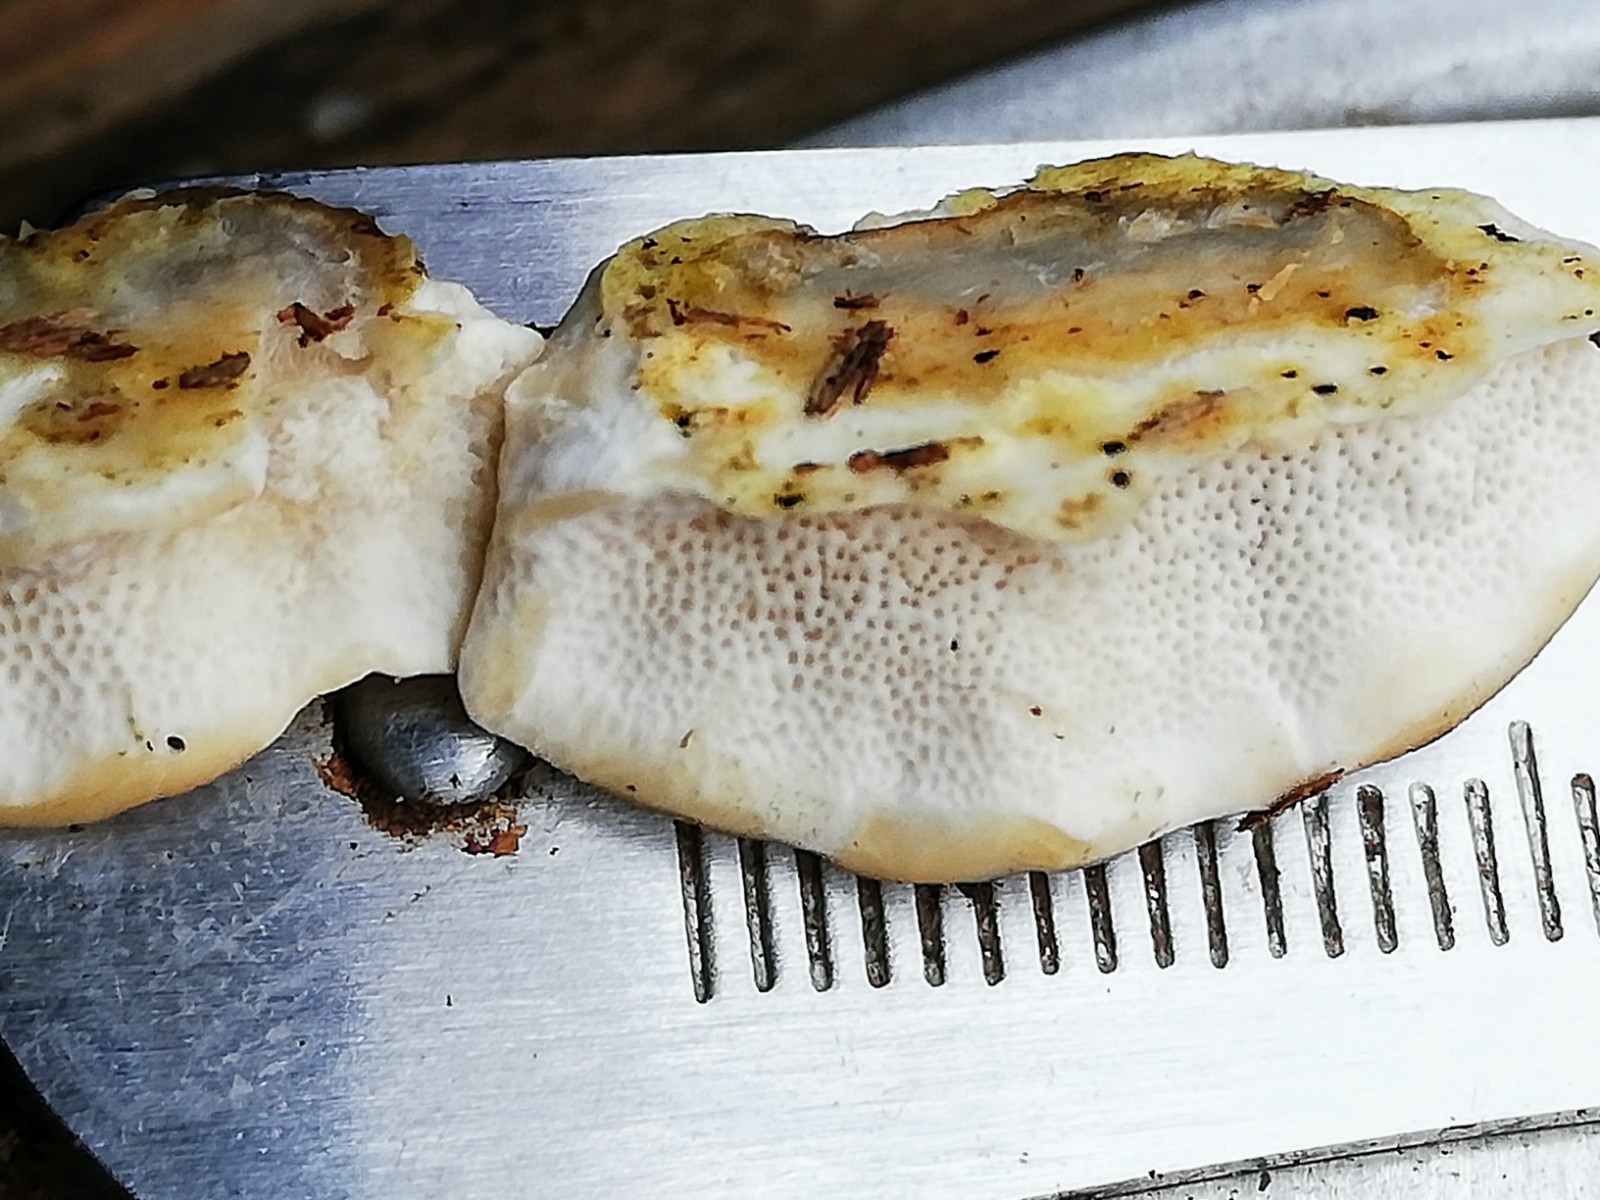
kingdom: Fungi
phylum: Basidiomycota
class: Agaricomycetes
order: Polyporales
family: Phanerochaetaceae
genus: Bjerkandera
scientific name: Bjerkandera fumosa
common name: grågul sodporesvamp
